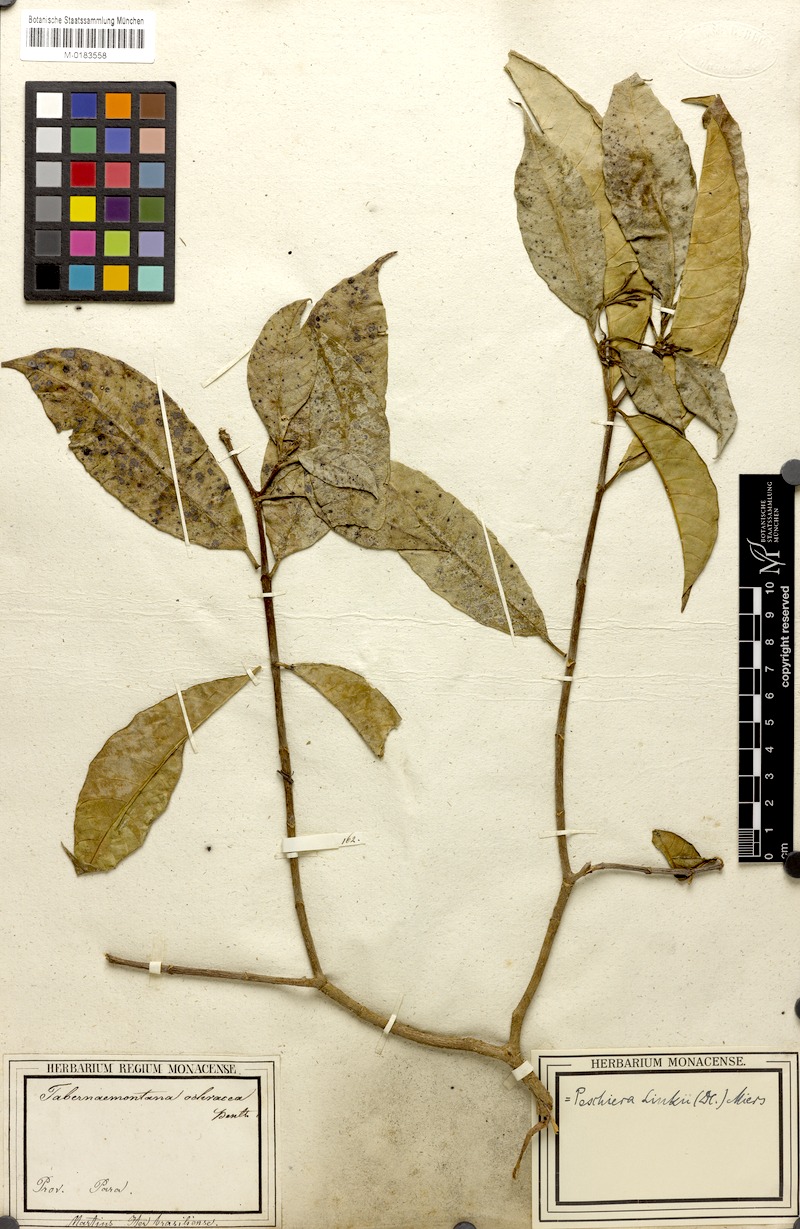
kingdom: Plantae
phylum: Tracheophyta
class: Magnoliopsida
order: Gentianales
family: Apocynaceae
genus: Tabernaemontana
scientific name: Tabernaemontana linkii
